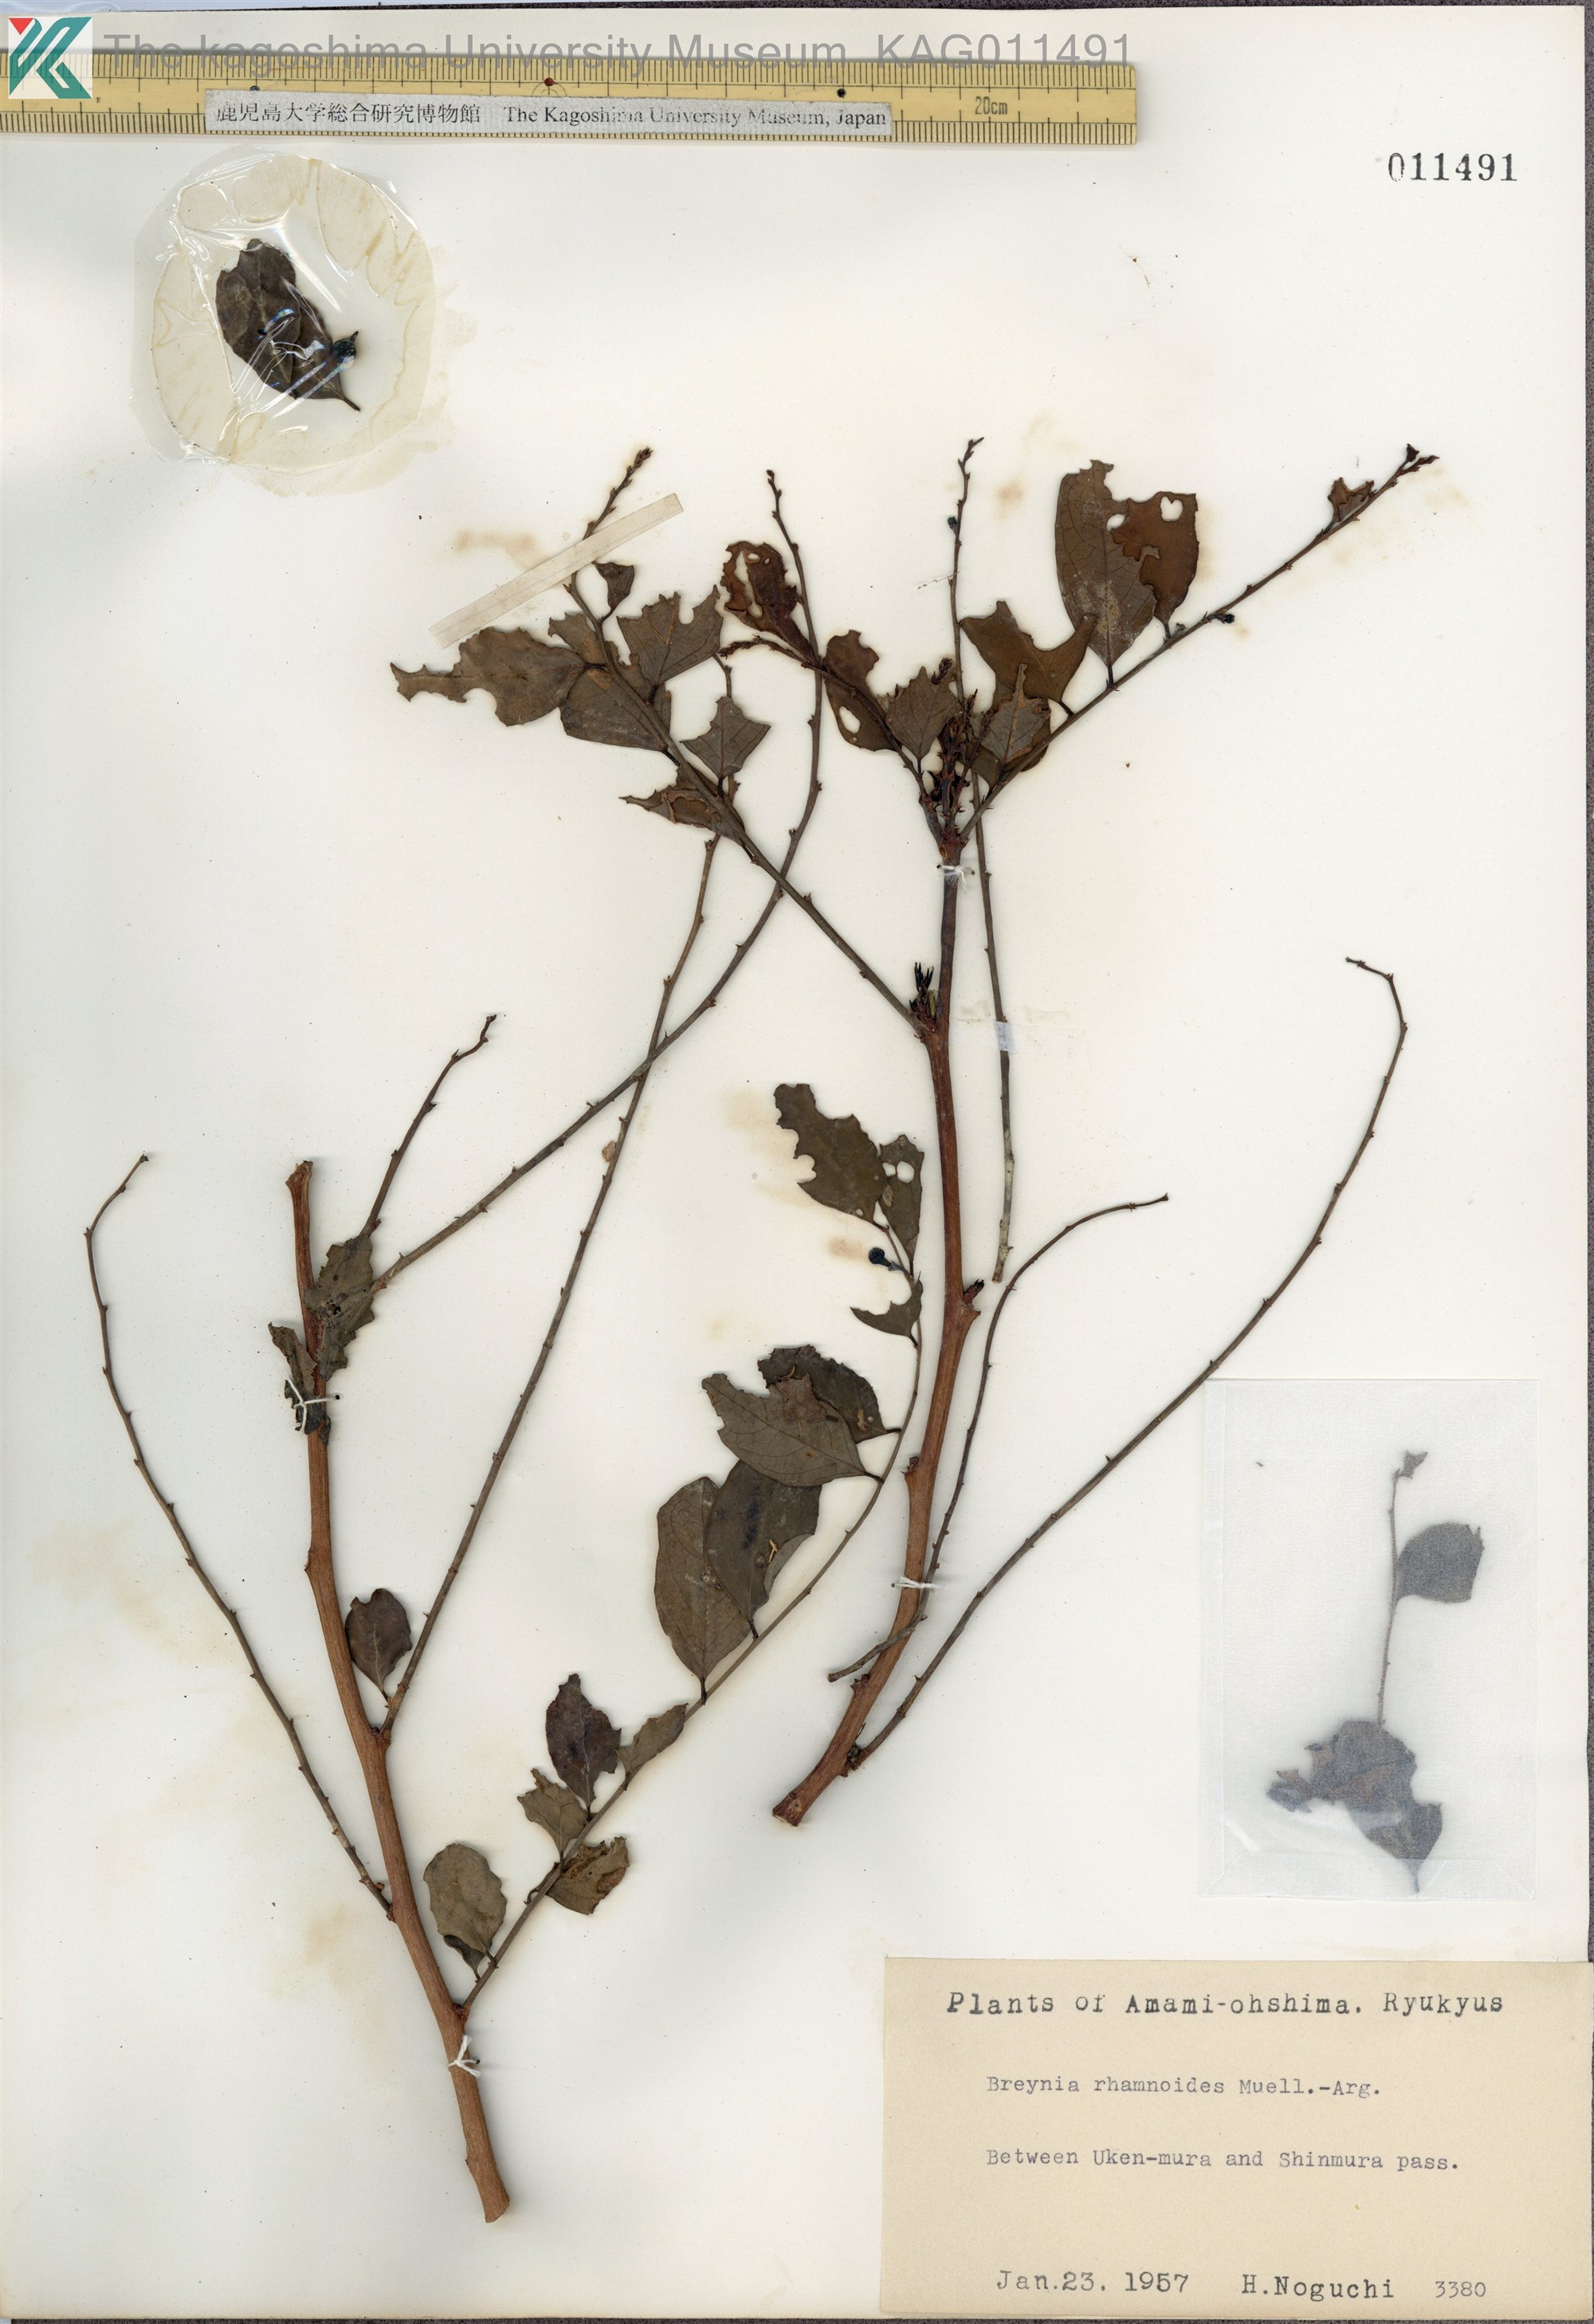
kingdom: Plantae
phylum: Tracheophyta
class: Magnoliopsida
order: Malpighiales
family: Phyllanthaceae
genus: Breynia
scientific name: Breynia vitis-idaea
